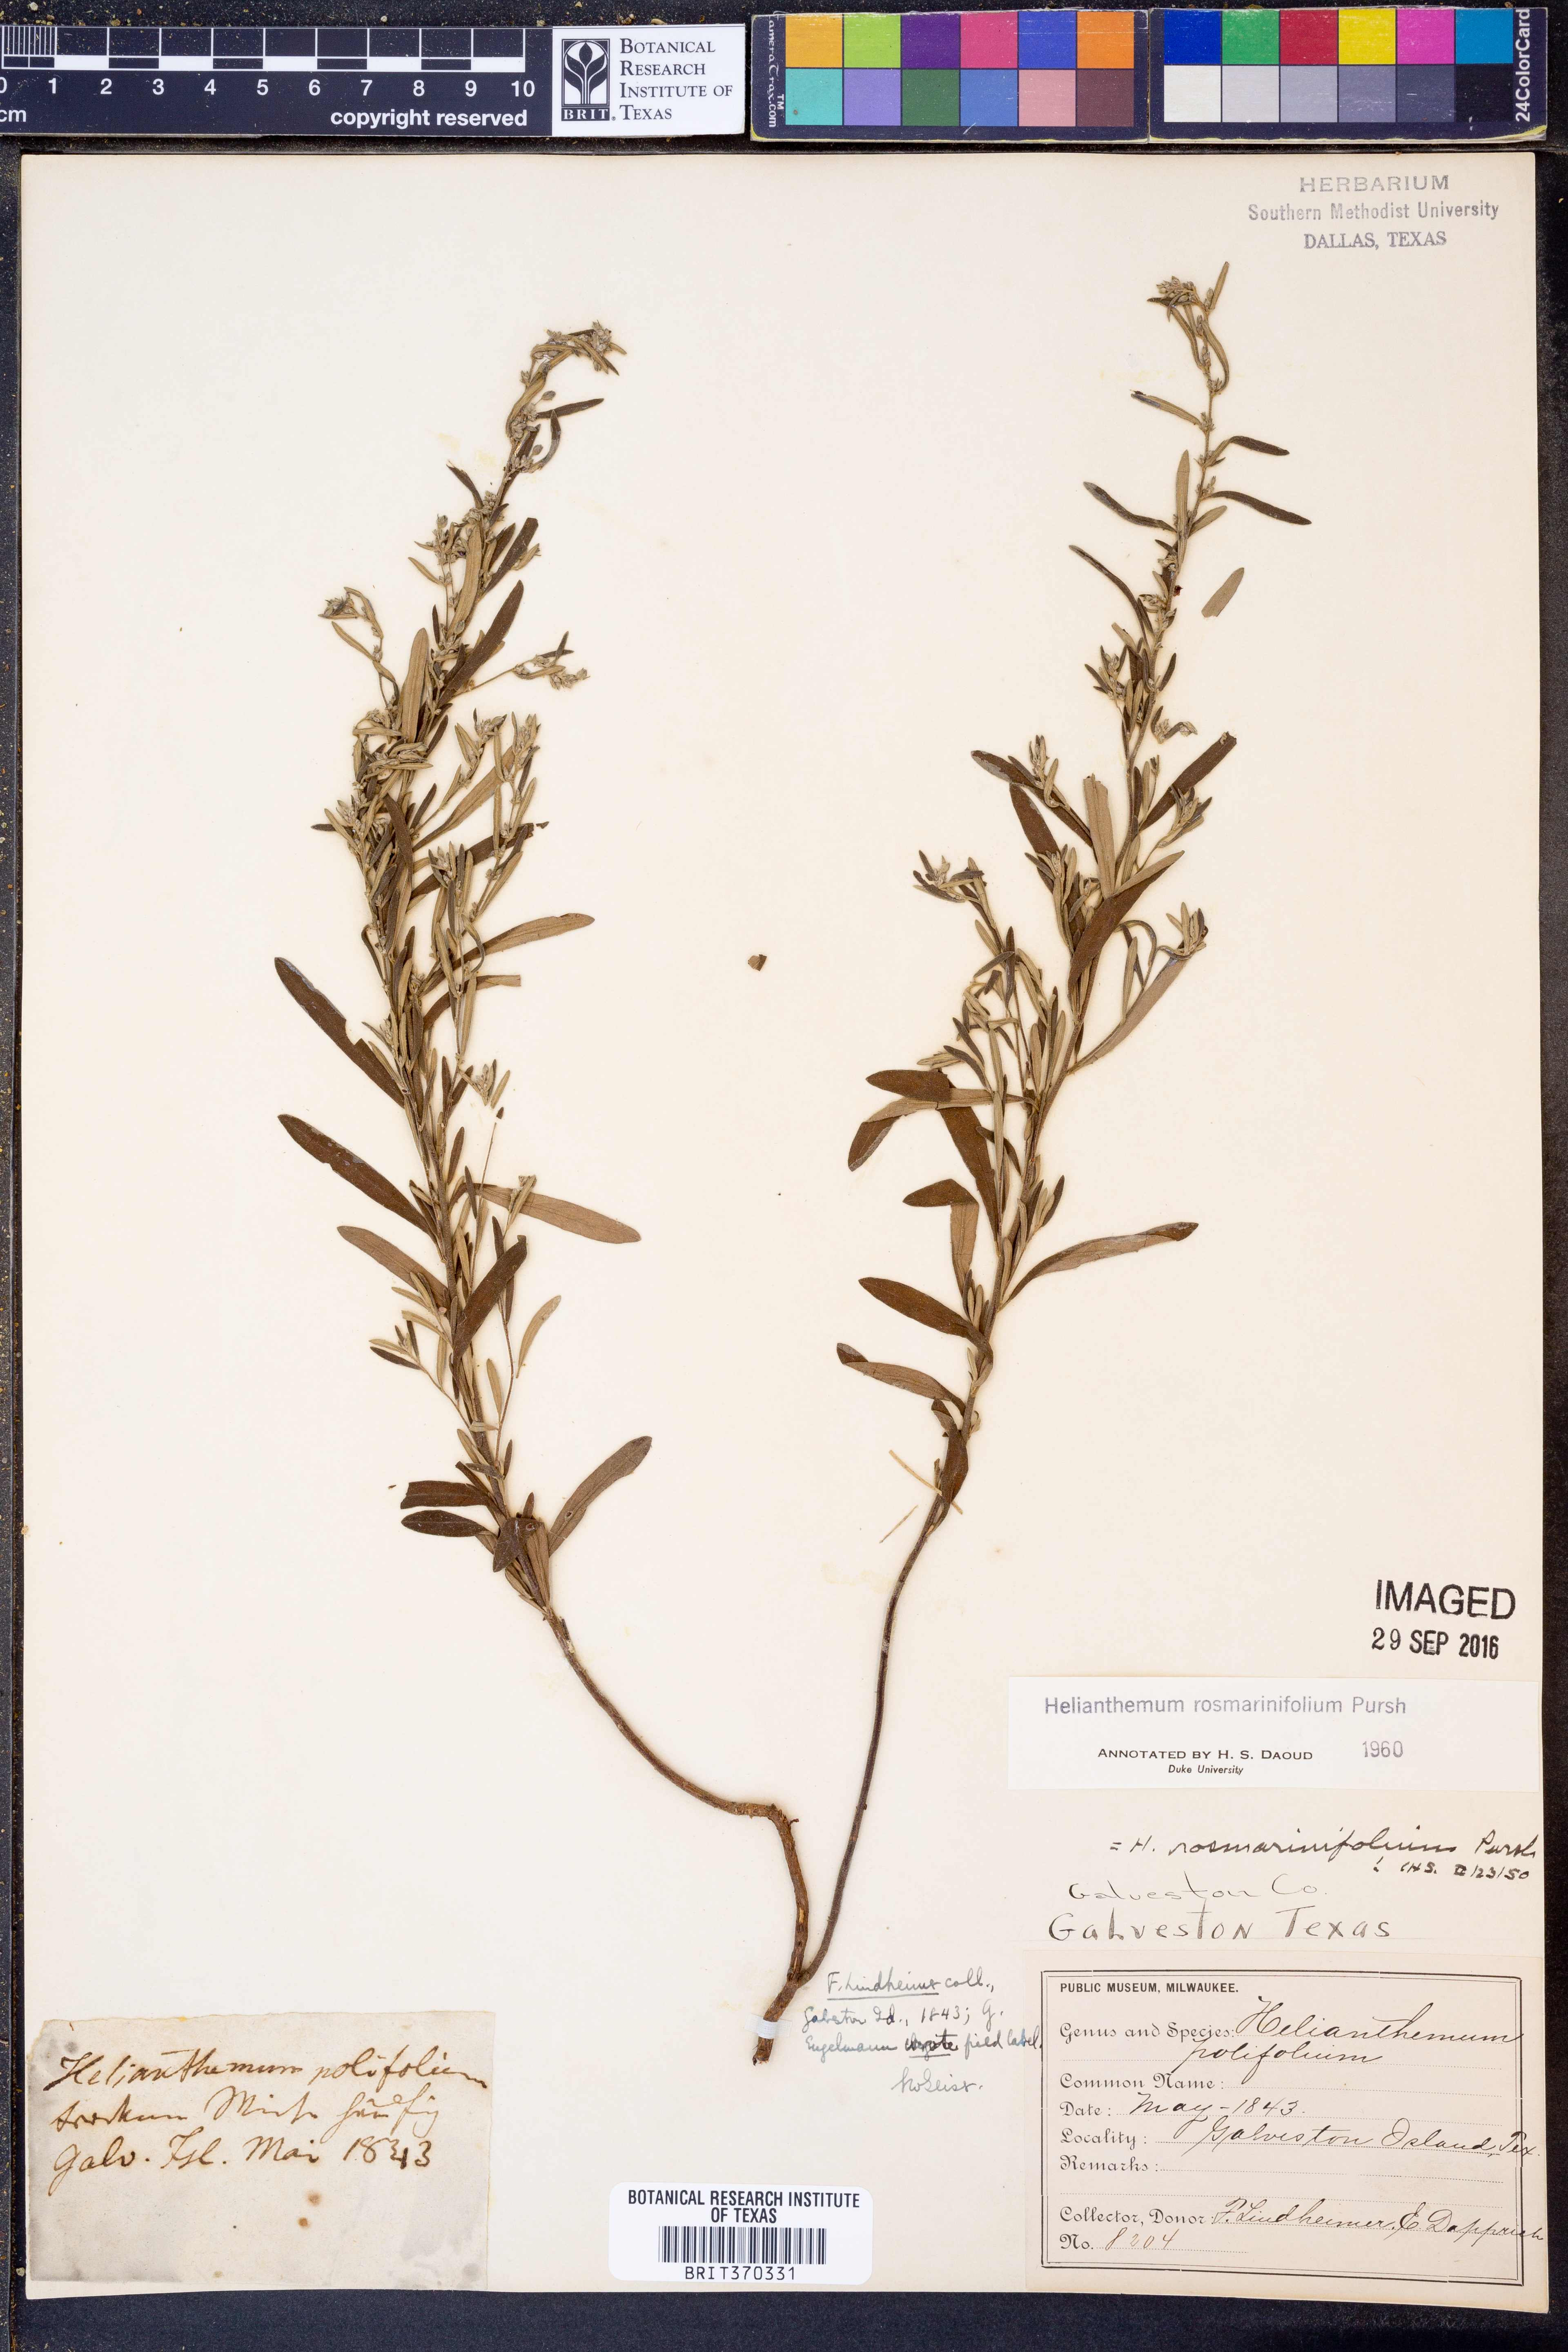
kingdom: Plantae
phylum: Tracheophyta
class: Magnoliopsida
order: Malvales
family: Cistaceae
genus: Crocanthemum
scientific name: Crocanthemum rosmarinifolium
